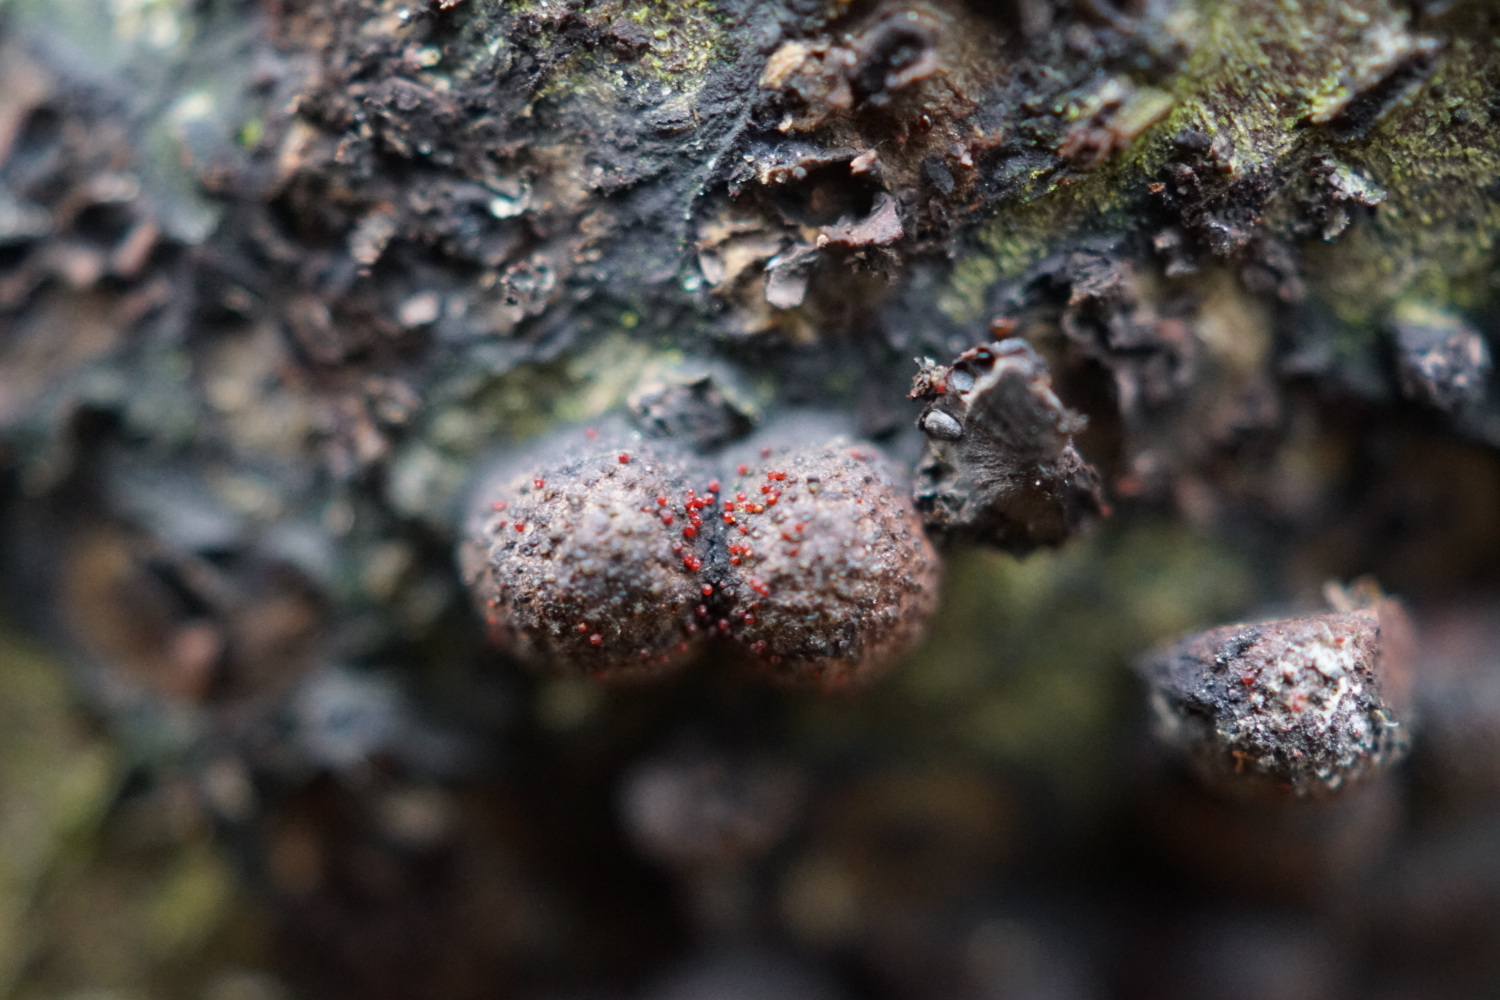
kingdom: Fungi
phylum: Ascomycota
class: Sordariomycetes
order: Hypocreales
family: Nectriaceae
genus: Cosmospora
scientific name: Cosmospora arxii
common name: kuljordbær-cinnobersvamp
